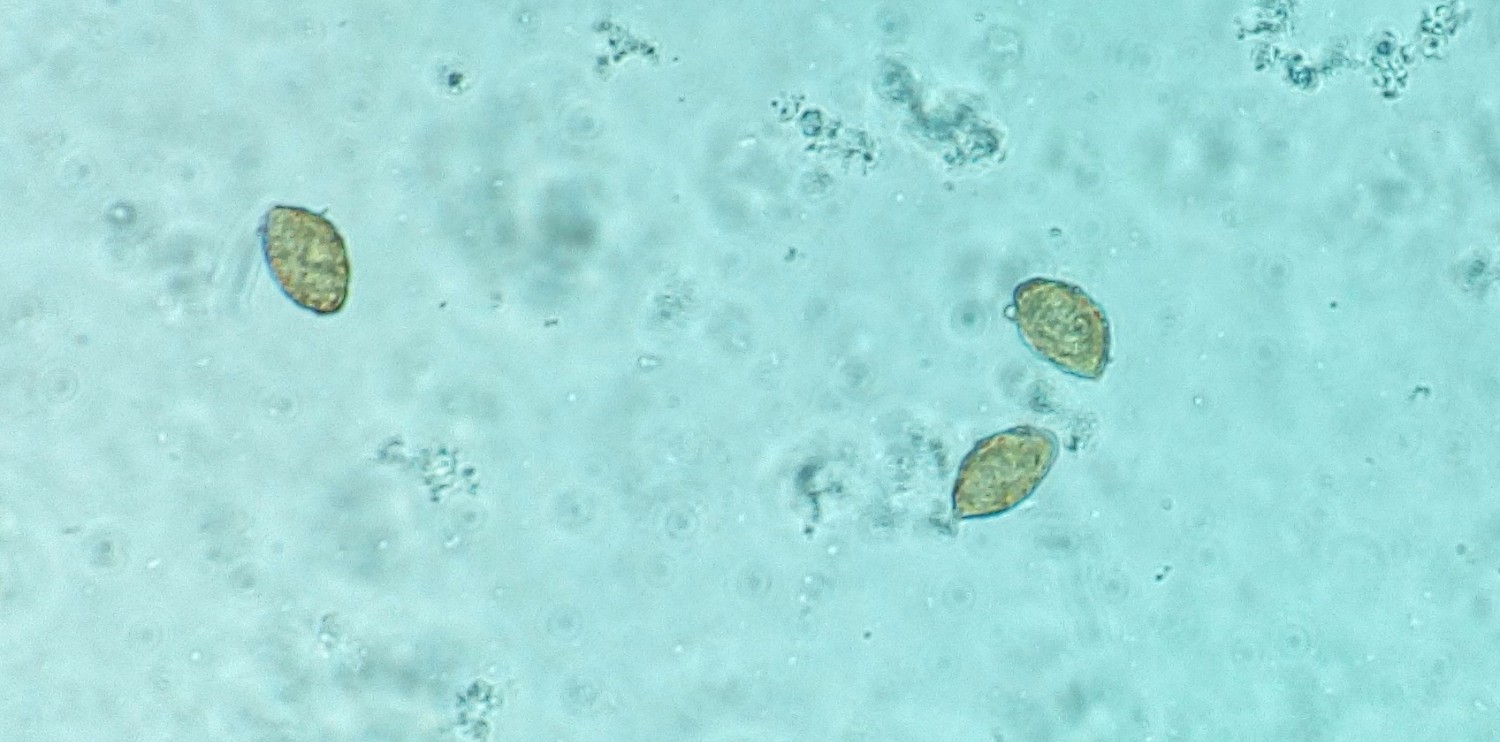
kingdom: Fungi
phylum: Basidiomycota
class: Agaricomycetes
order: Agaricales
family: Cortinariaceae
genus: Cortinarius
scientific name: Cortinarius nanceiensis
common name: banan-slørhat
